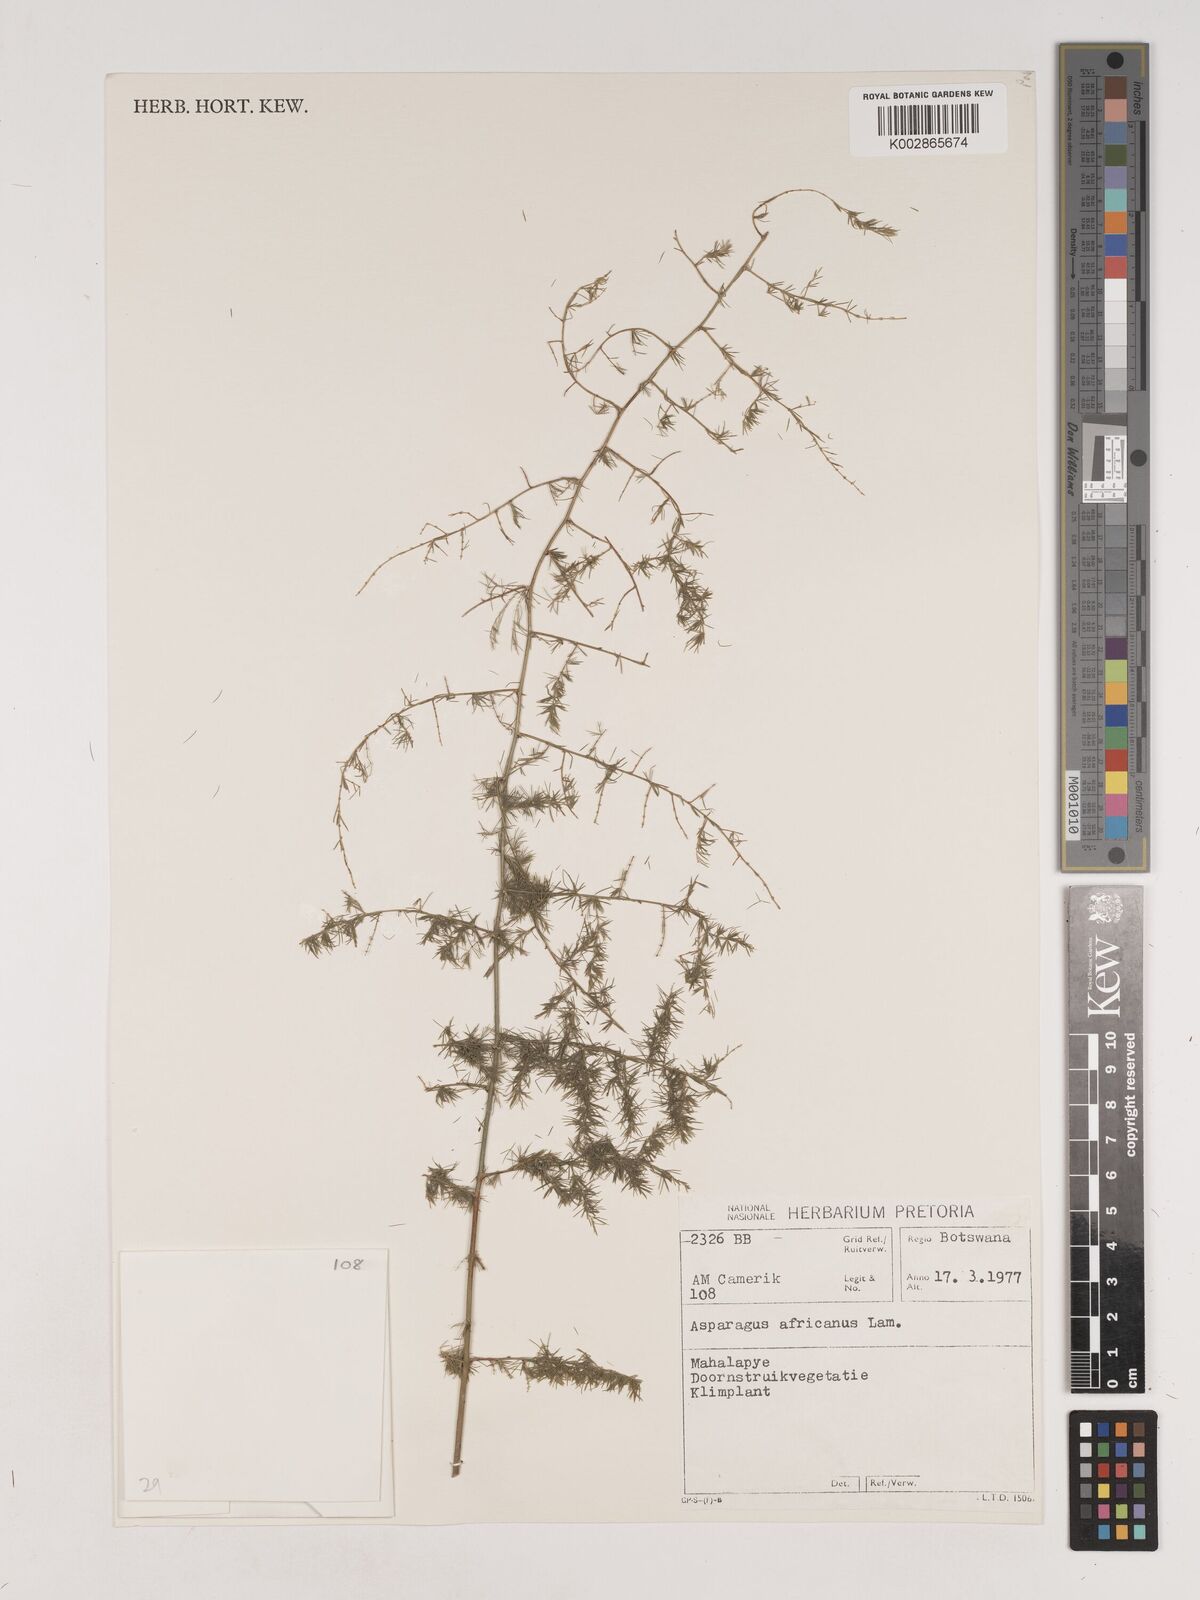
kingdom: Plantae
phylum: Tracheophyta
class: Liliopsida
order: Asparagales
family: Asparagaceae
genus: Asparagus
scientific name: Asparagus africanus
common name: Asparagus-fern
